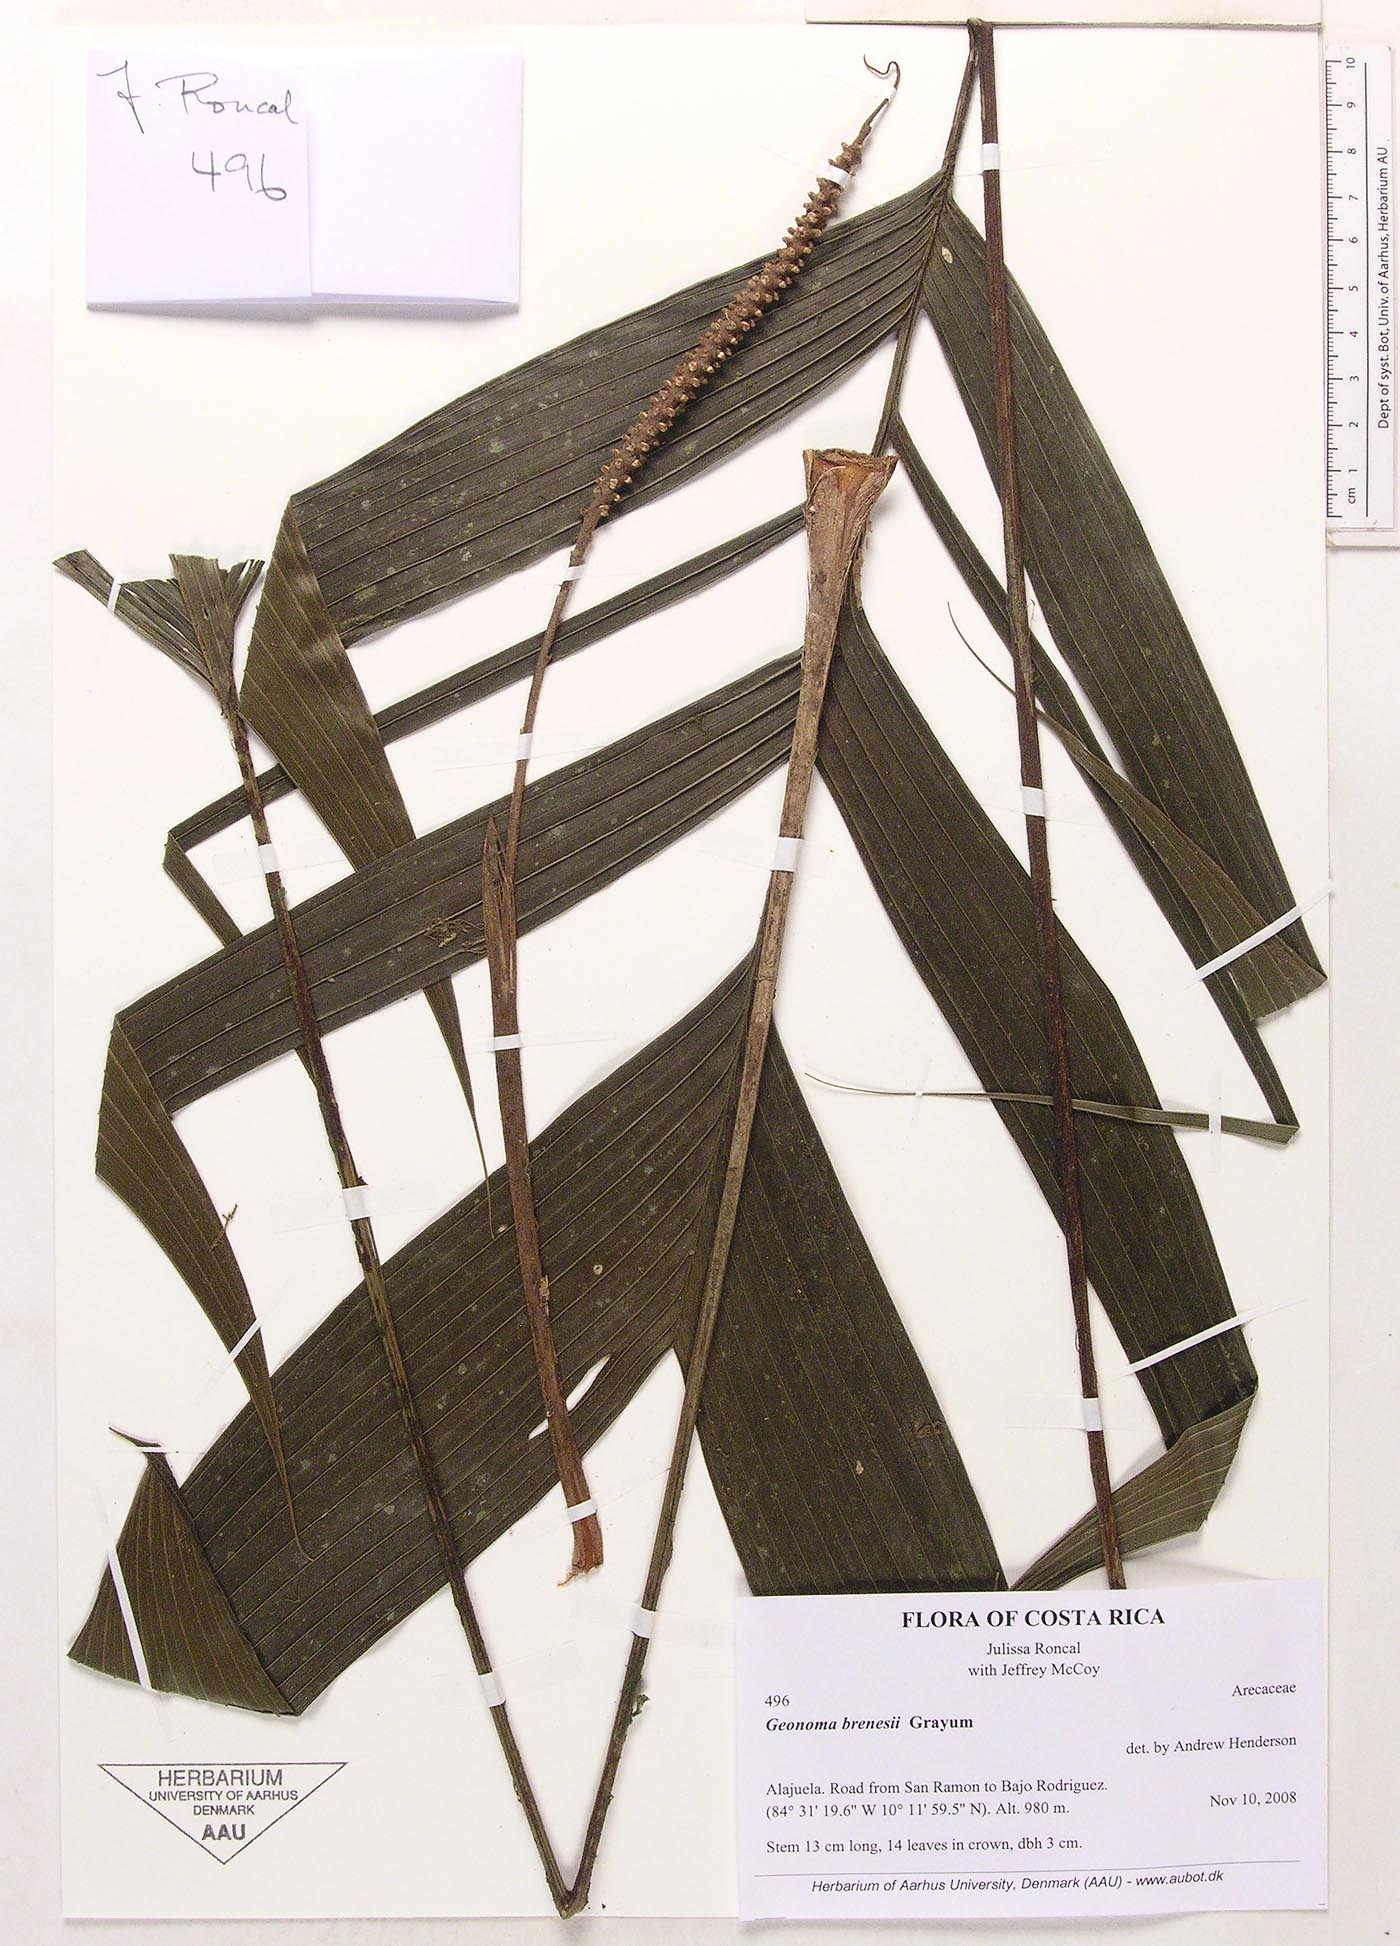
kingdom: Plantae
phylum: Tracheophyta
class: Liliopsida
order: Arecales
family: Arecaceae
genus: Geonoma
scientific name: Geonoma brenesii
